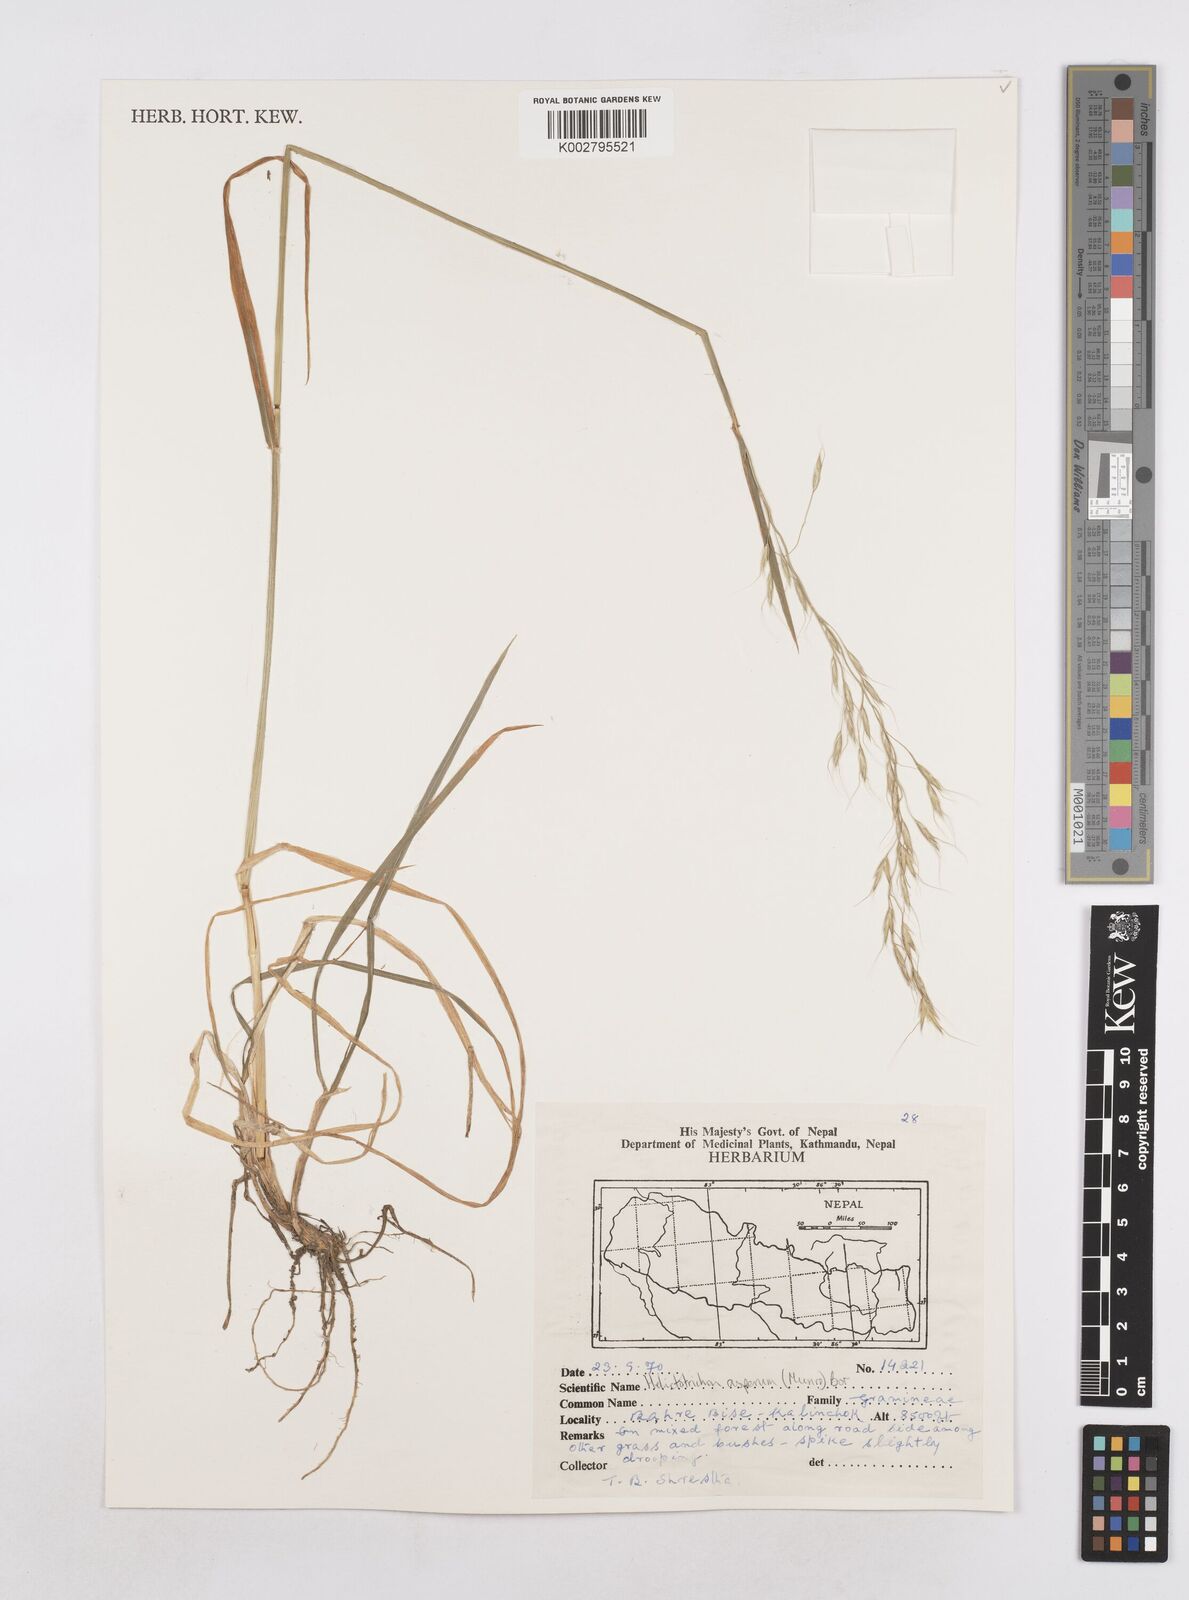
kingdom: Plantae
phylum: Tracheophyta
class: Liliopsida
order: Poales
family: Poaceae
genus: Trisetopsis
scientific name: Trisetopsis junghuhnii
